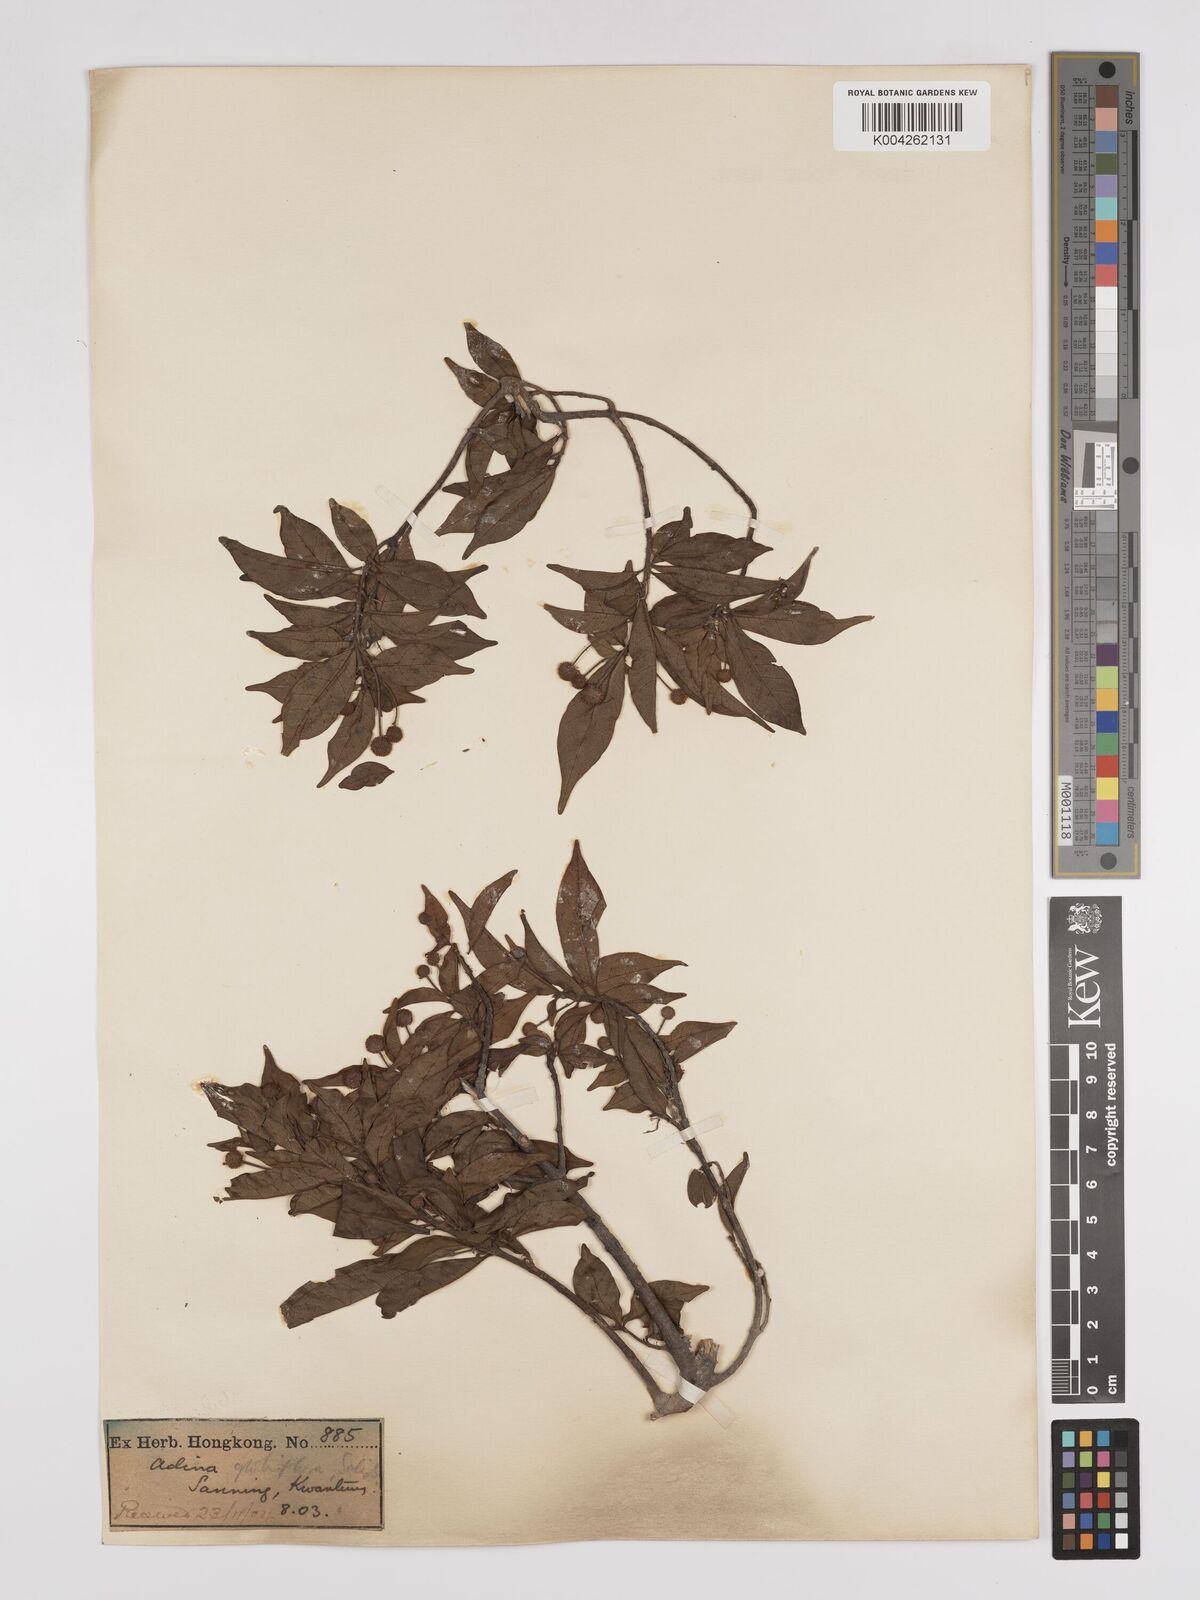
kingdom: Plantae
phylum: Tracheophyta
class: Magnoliopsida
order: Gentianales
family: Rubiaceae
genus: Adina
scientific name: Adina pilulifera
